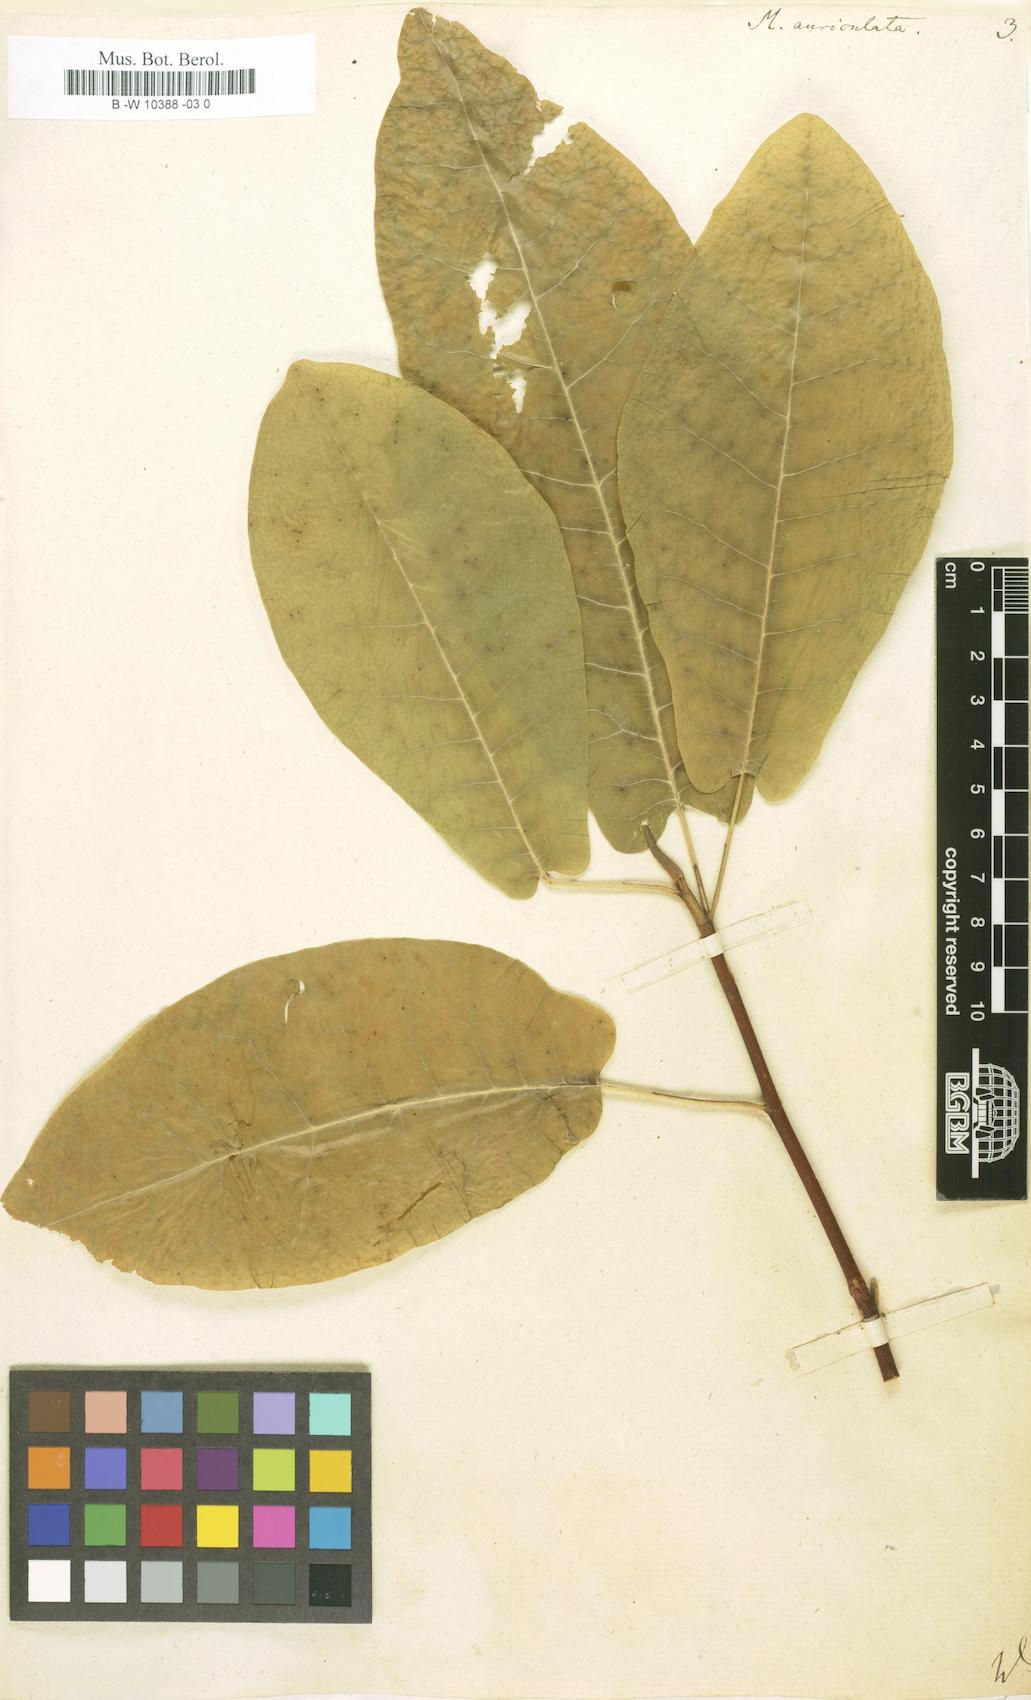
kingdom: Plantae
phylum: Tracheophyta
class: Magnoliopsida
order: Magnoliales
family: Magnoliaceae
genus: Magnolia
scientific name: Magnolia fraseri
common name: Fraser's magnolia
